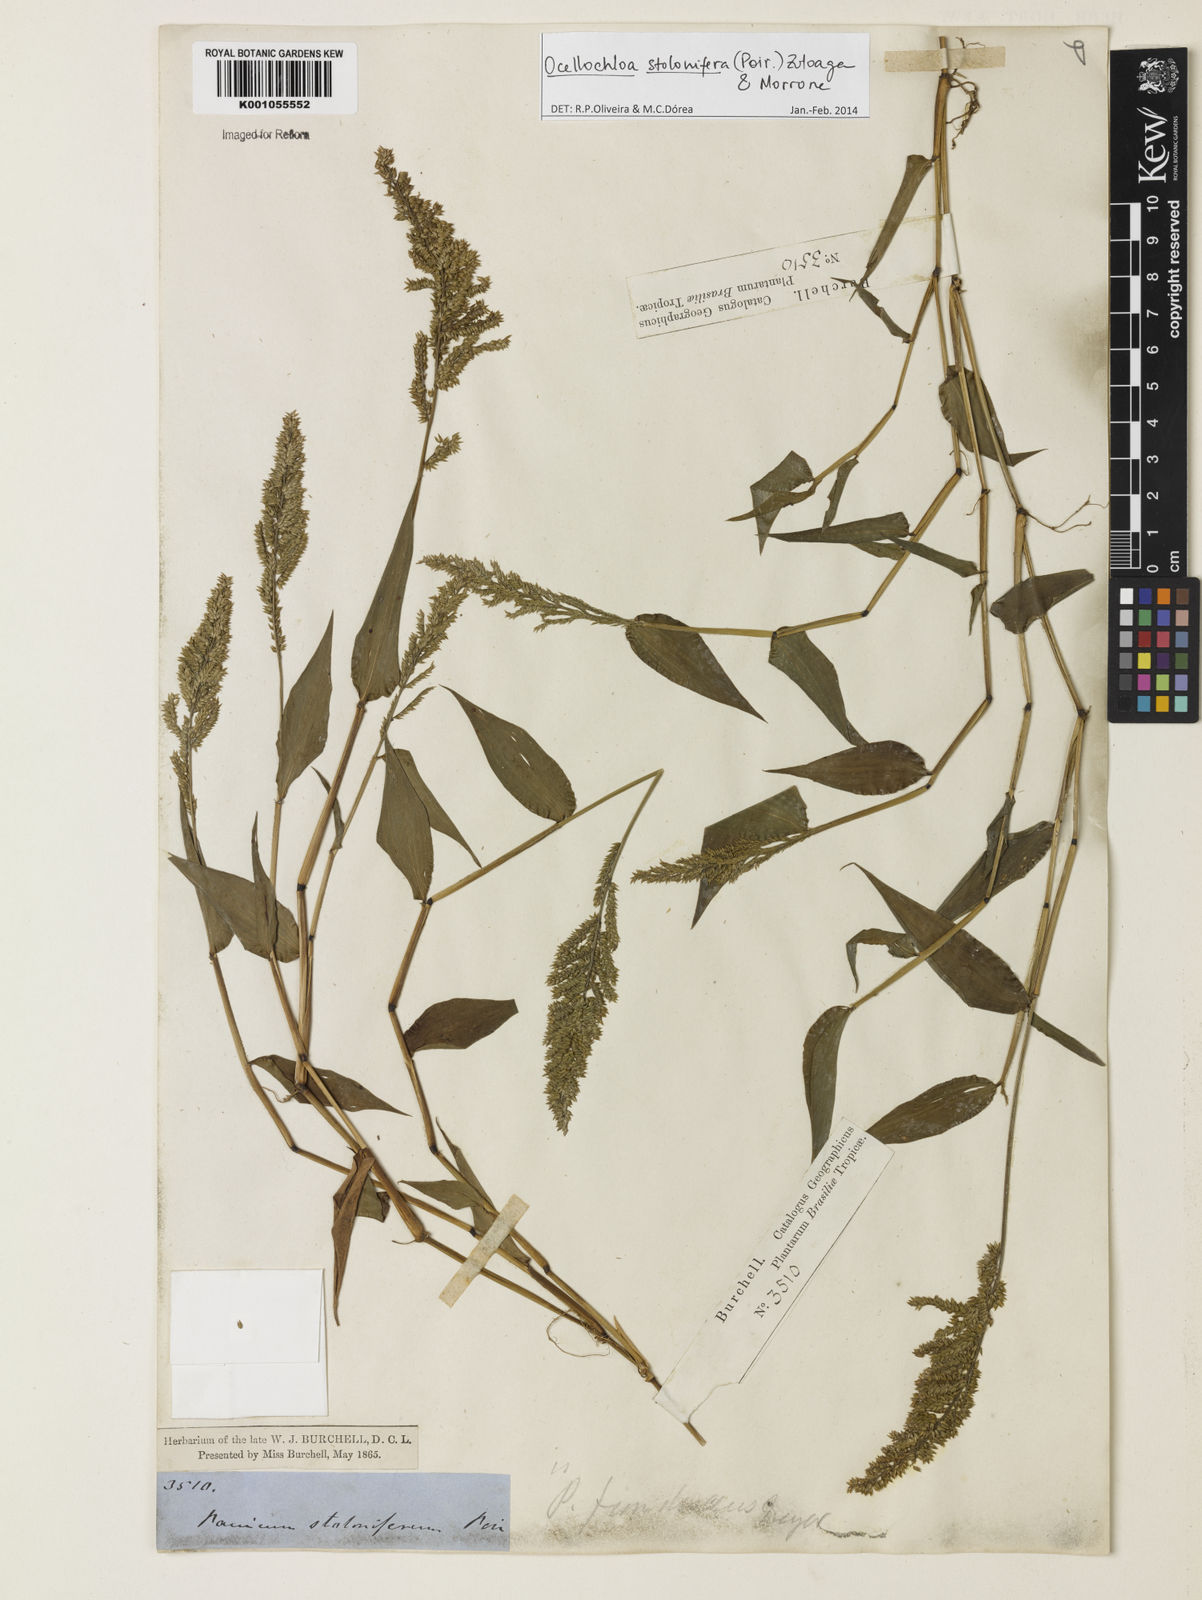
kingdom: Plantae
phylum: Tracheophyta
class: Liliopsida
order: Poales
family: Poaceae
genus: Ocellochloa
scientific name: Ocellochloa stolonifera
